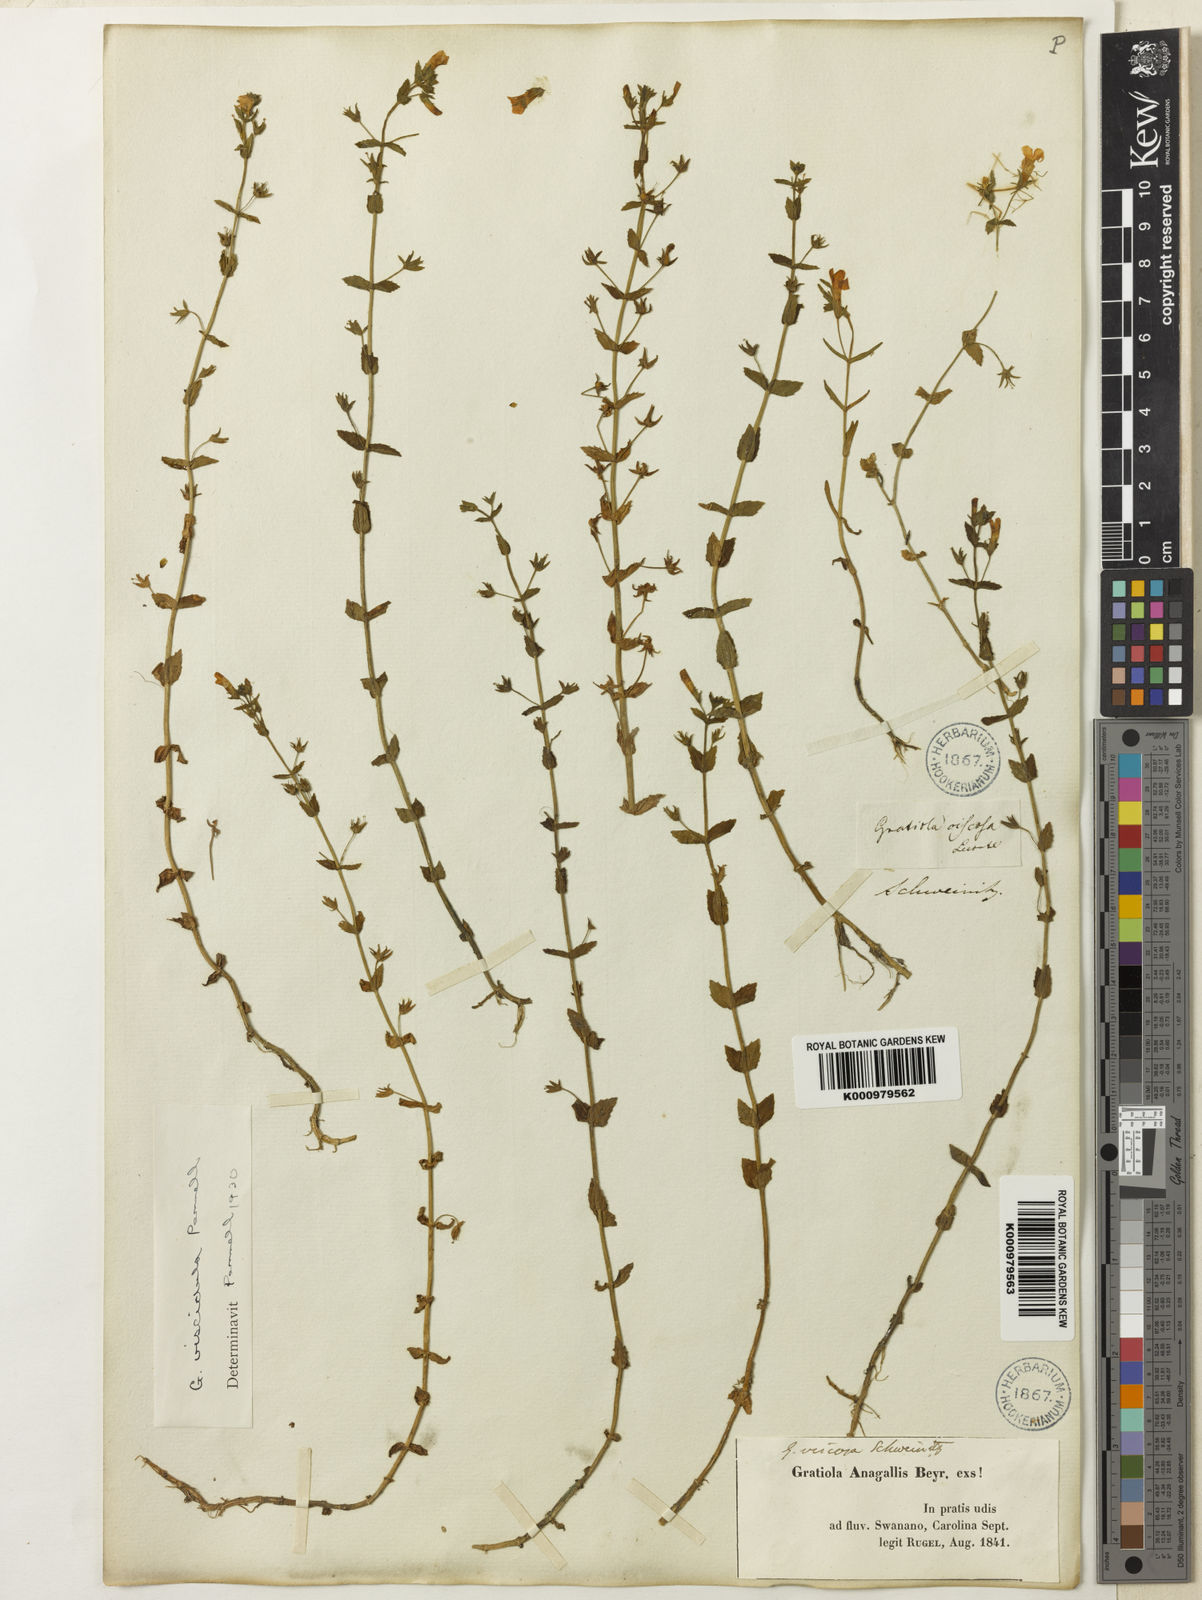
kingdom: Plantae
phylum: Tracheophyta
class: Magnoliopsida
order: Lamiales
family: Plantaginaceae
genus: Gratiola
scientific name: Gratiola lutea
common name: Golden hedge-hyssop
